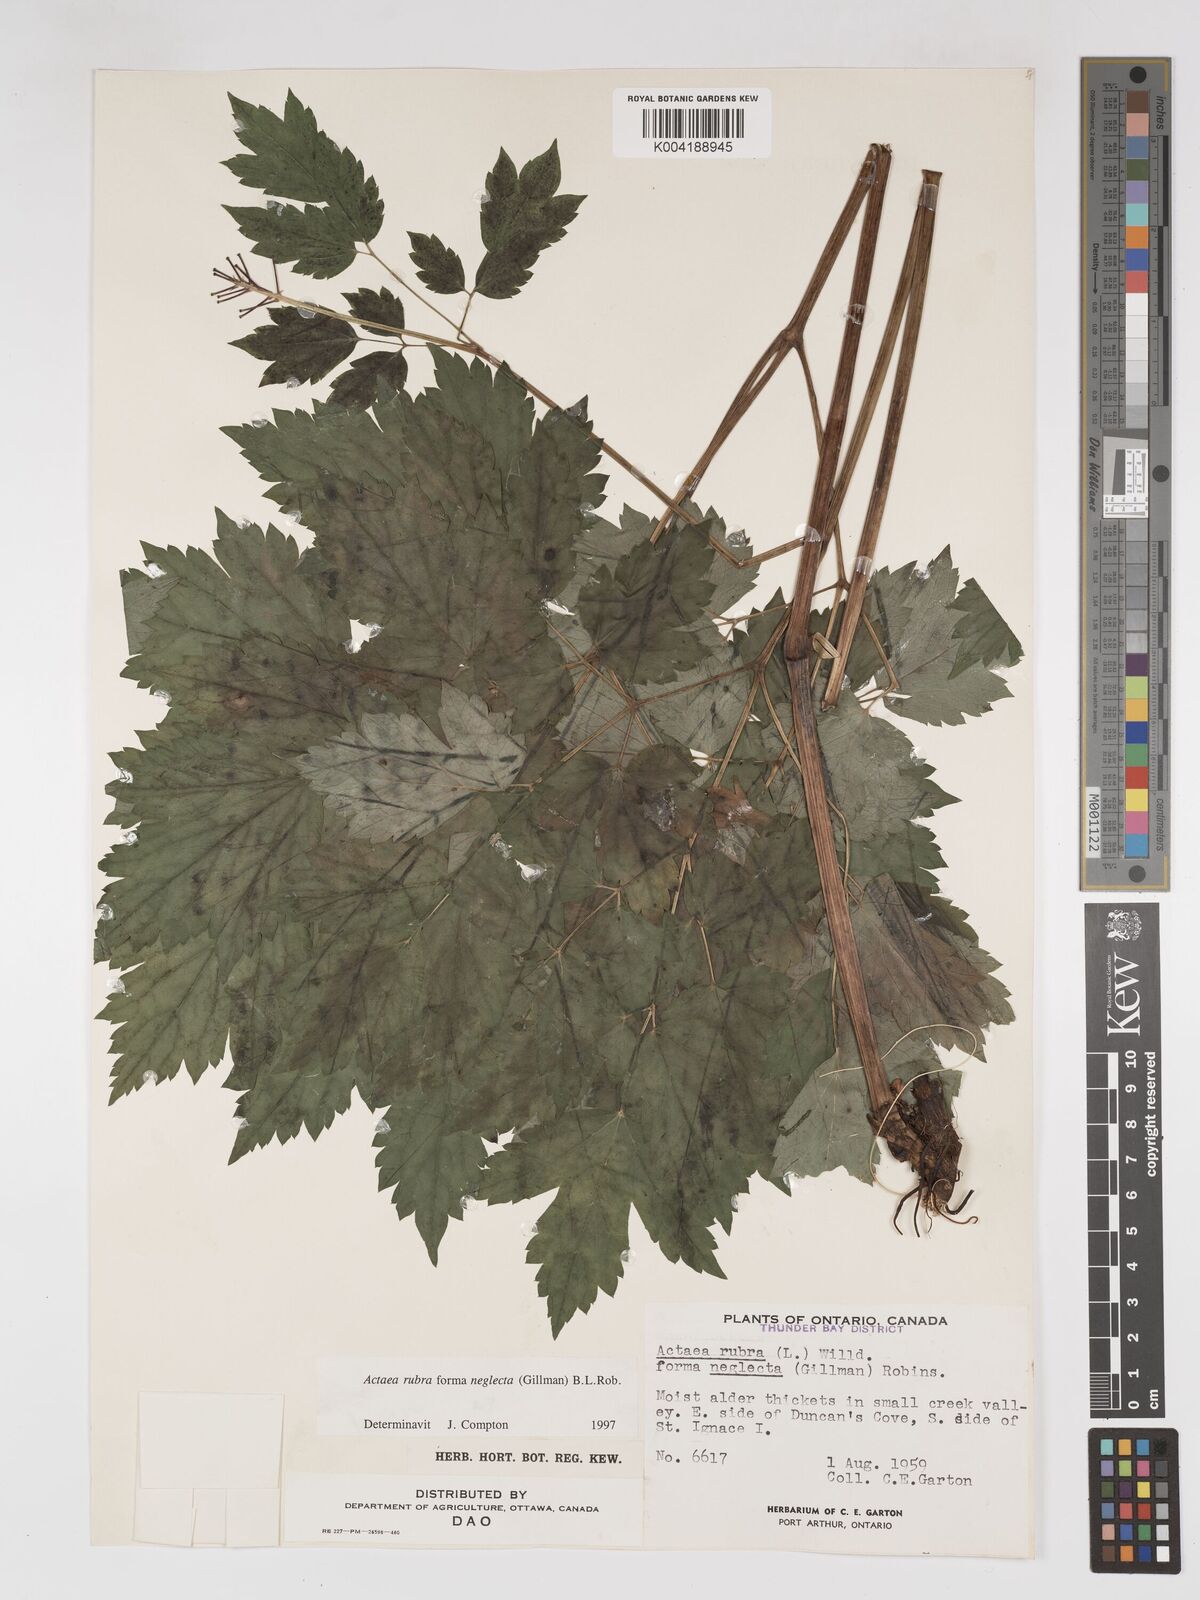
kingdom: Plantae
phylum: Tracheophyta
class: Magnoliopsida
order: Ranunculales
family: Ranunculaceae
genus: Actaea
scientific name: Actaea rubra
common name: Red baneberry
